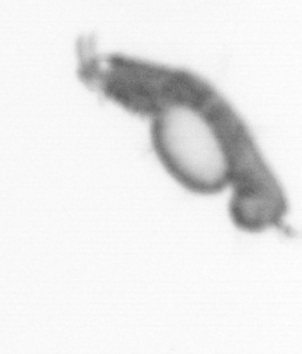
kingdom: Animalia
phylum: Annelida
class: Polychaeta
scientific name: Polychaeta
